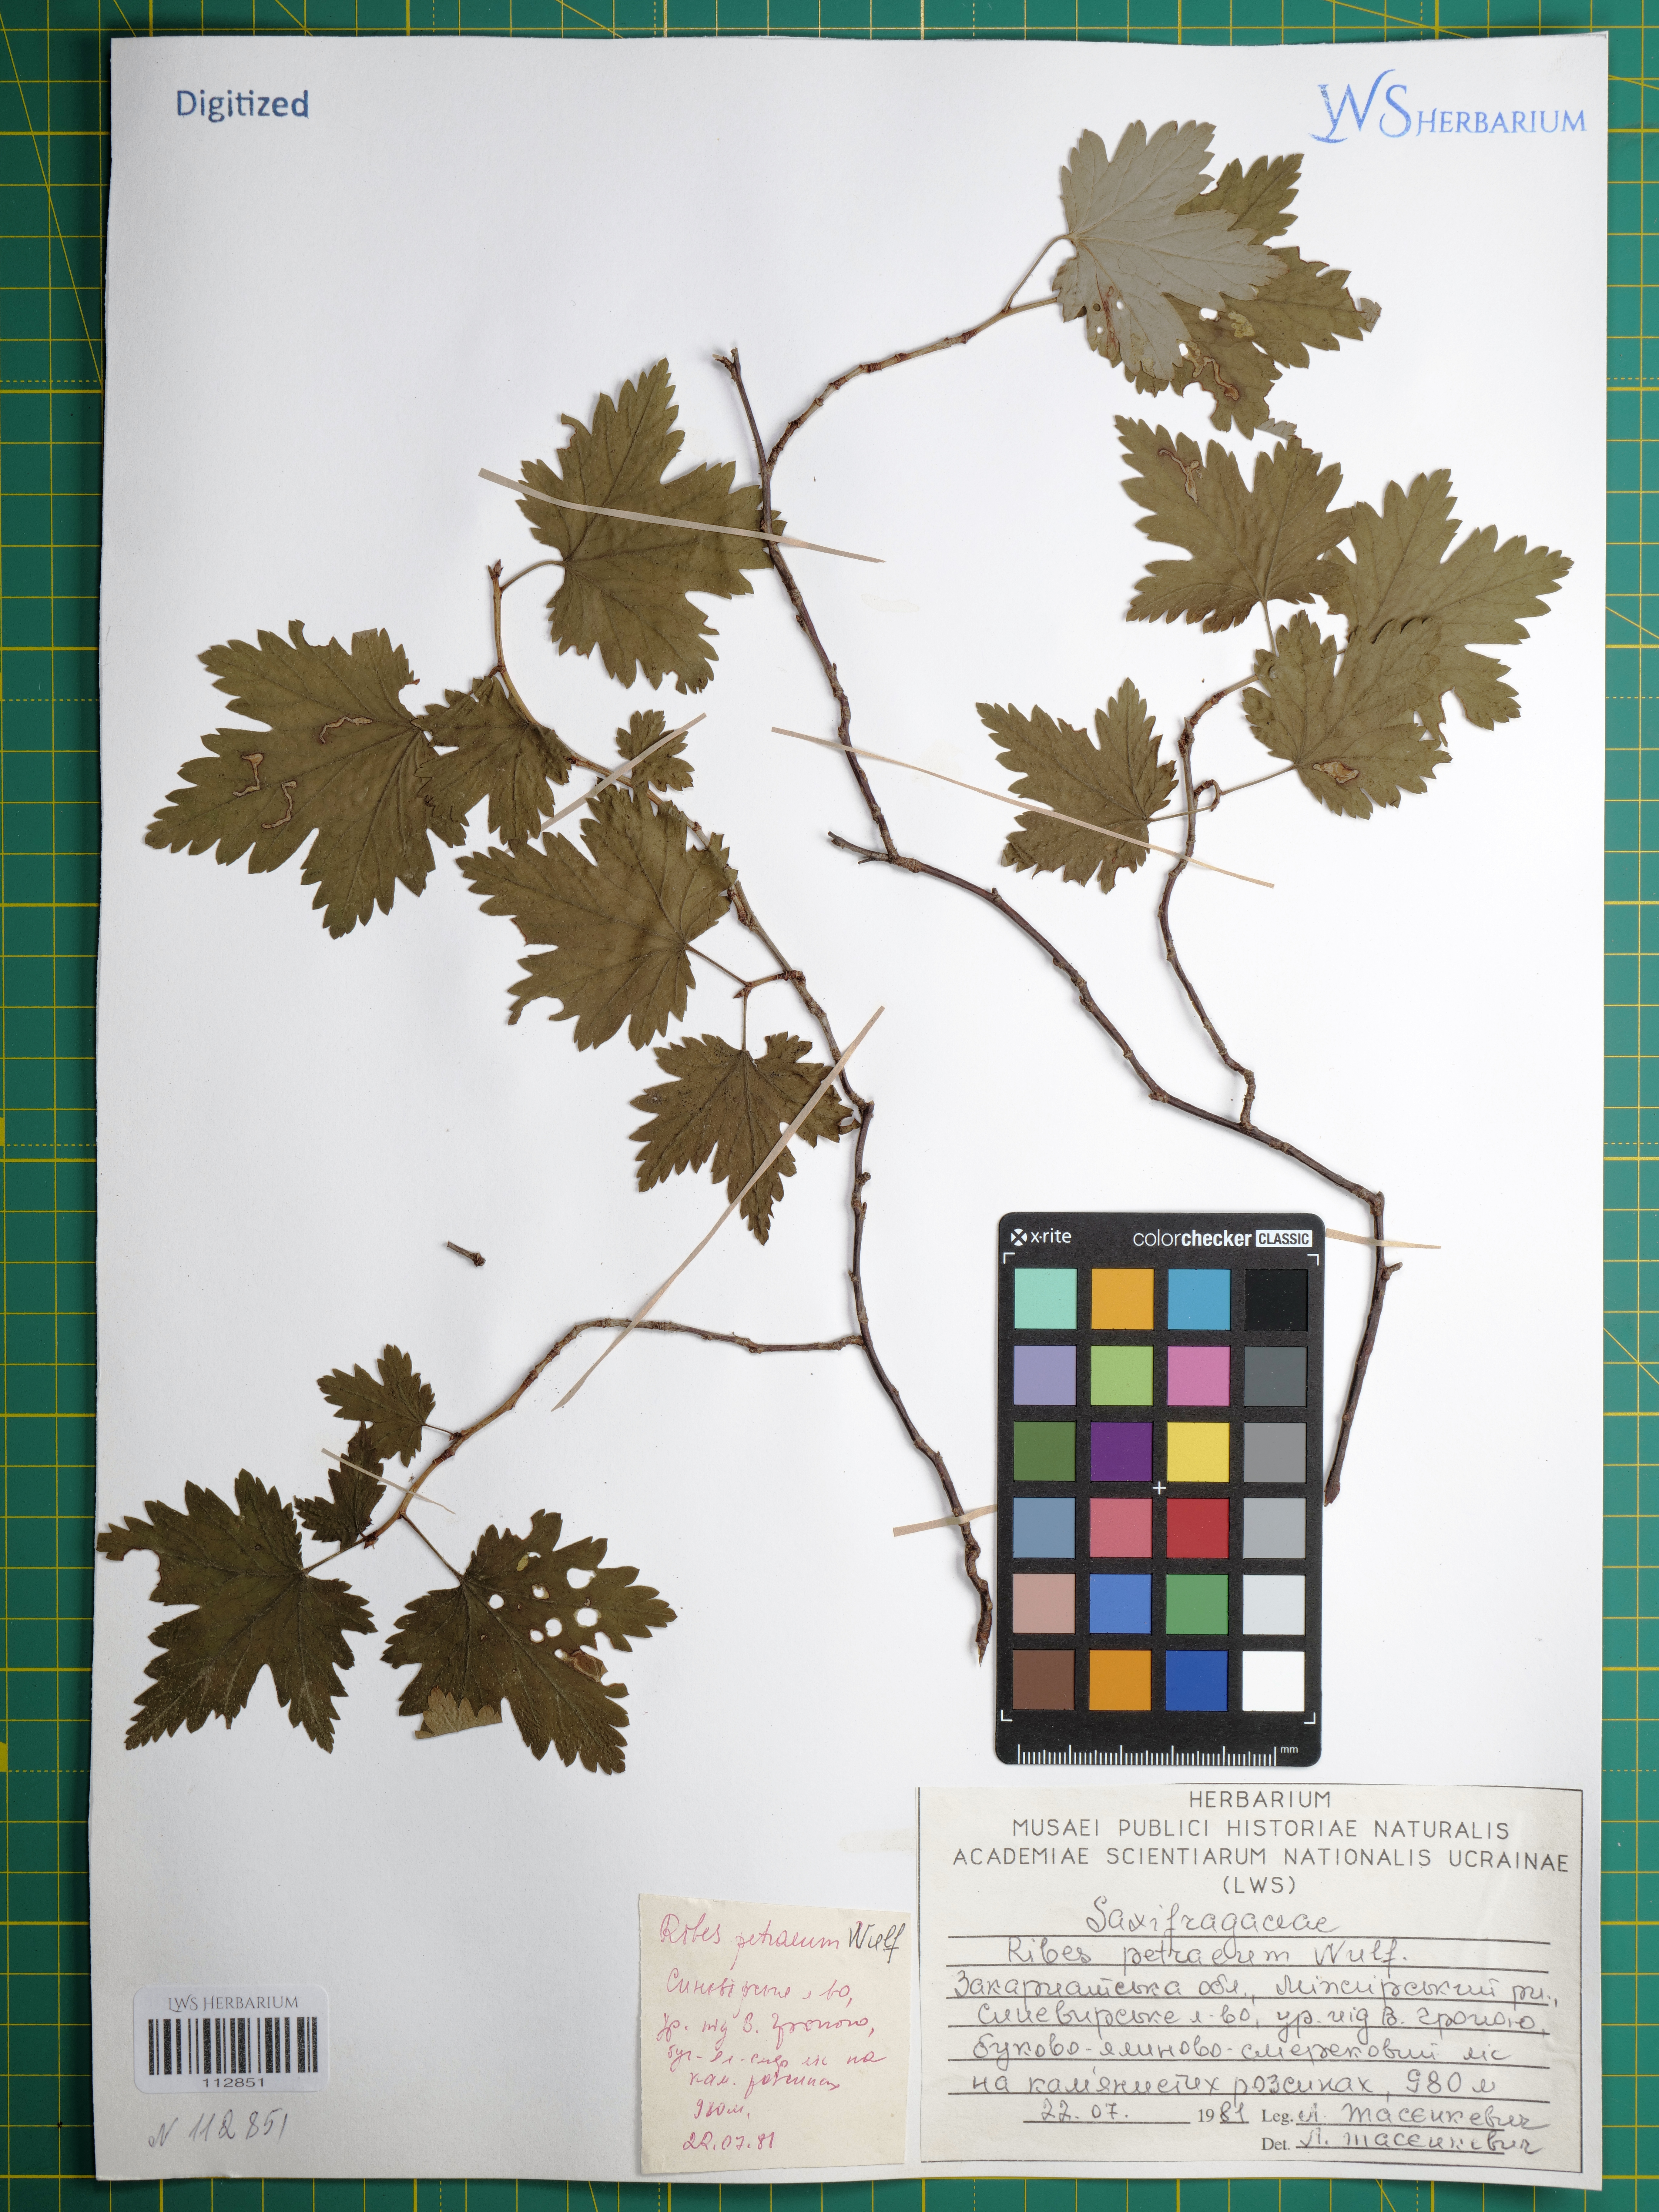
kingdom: Plantae
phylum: Tracheophyta
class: Magnoliopsida
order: Saxifragales
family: Grossulariaceae
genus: Ribes
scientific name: Ribes petraeum
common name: Rock currant
